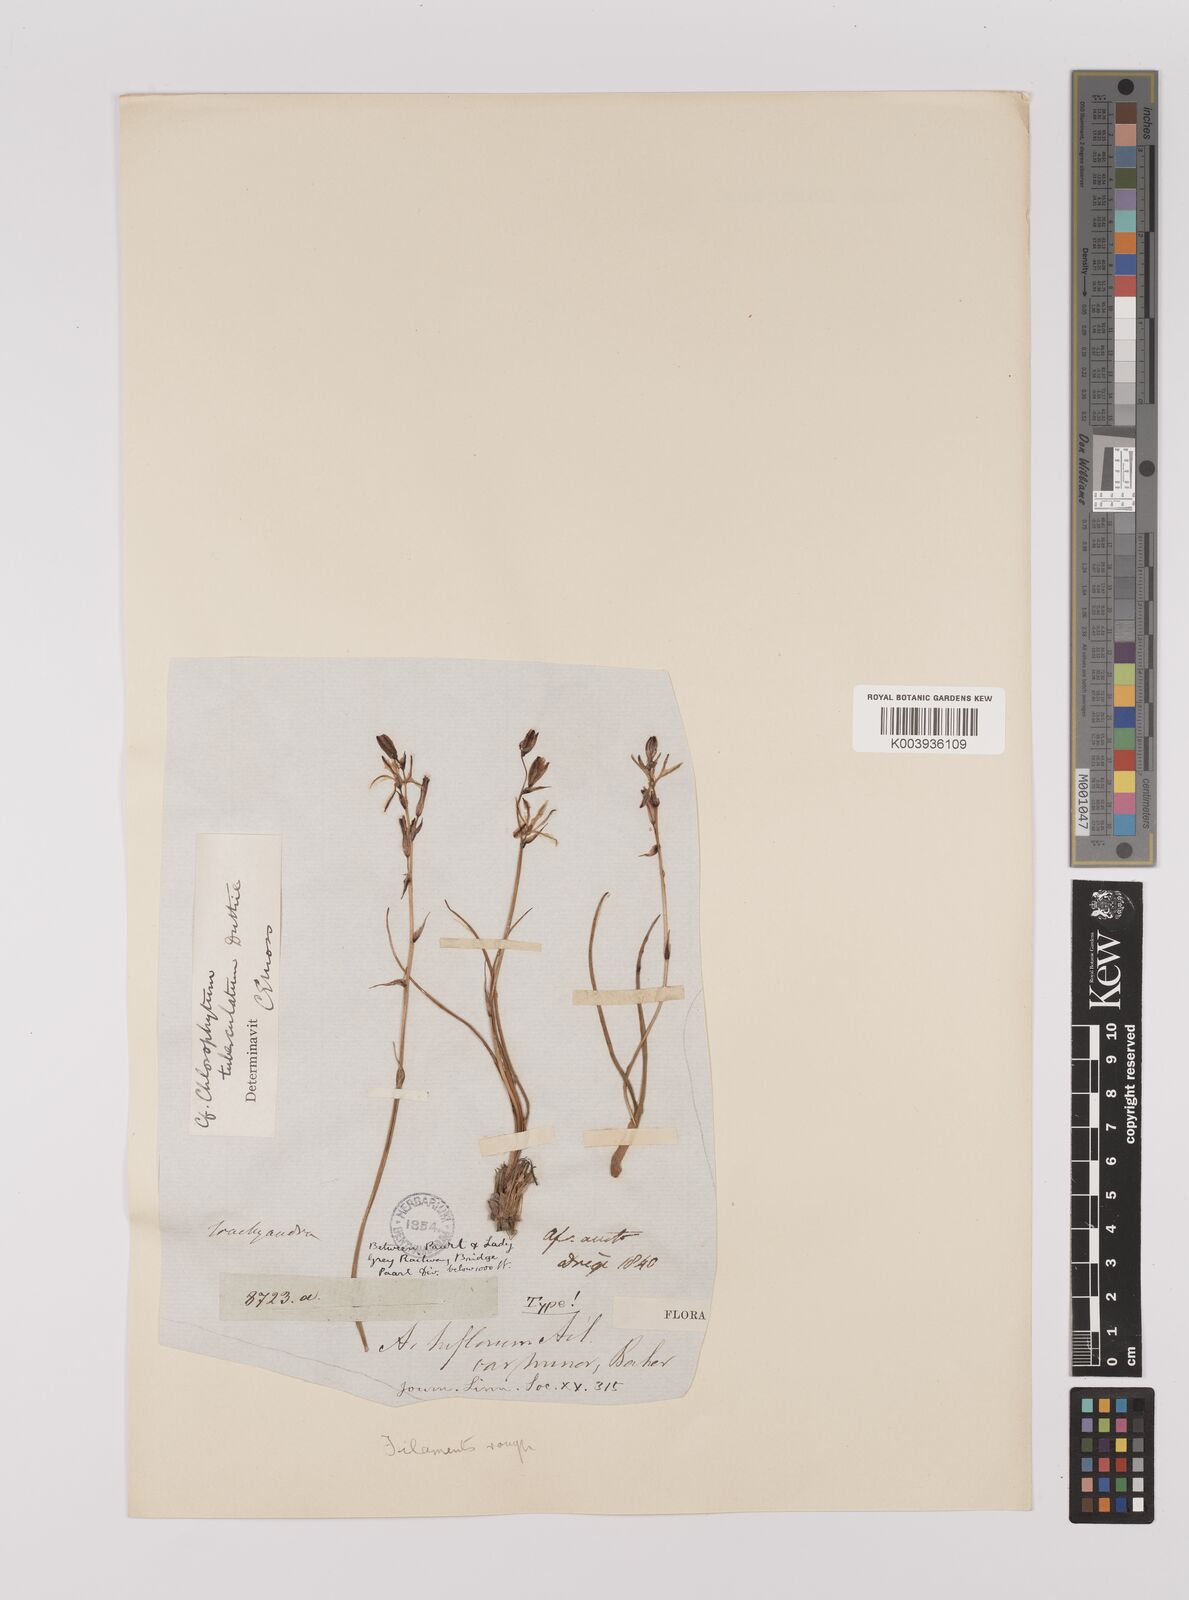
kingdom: Plantae
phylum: Tracheophyta
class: Liliopsida
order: Asparagales
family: Asparagaceae
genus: Chlorophytum
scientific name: Chlorophytum graminifolium
